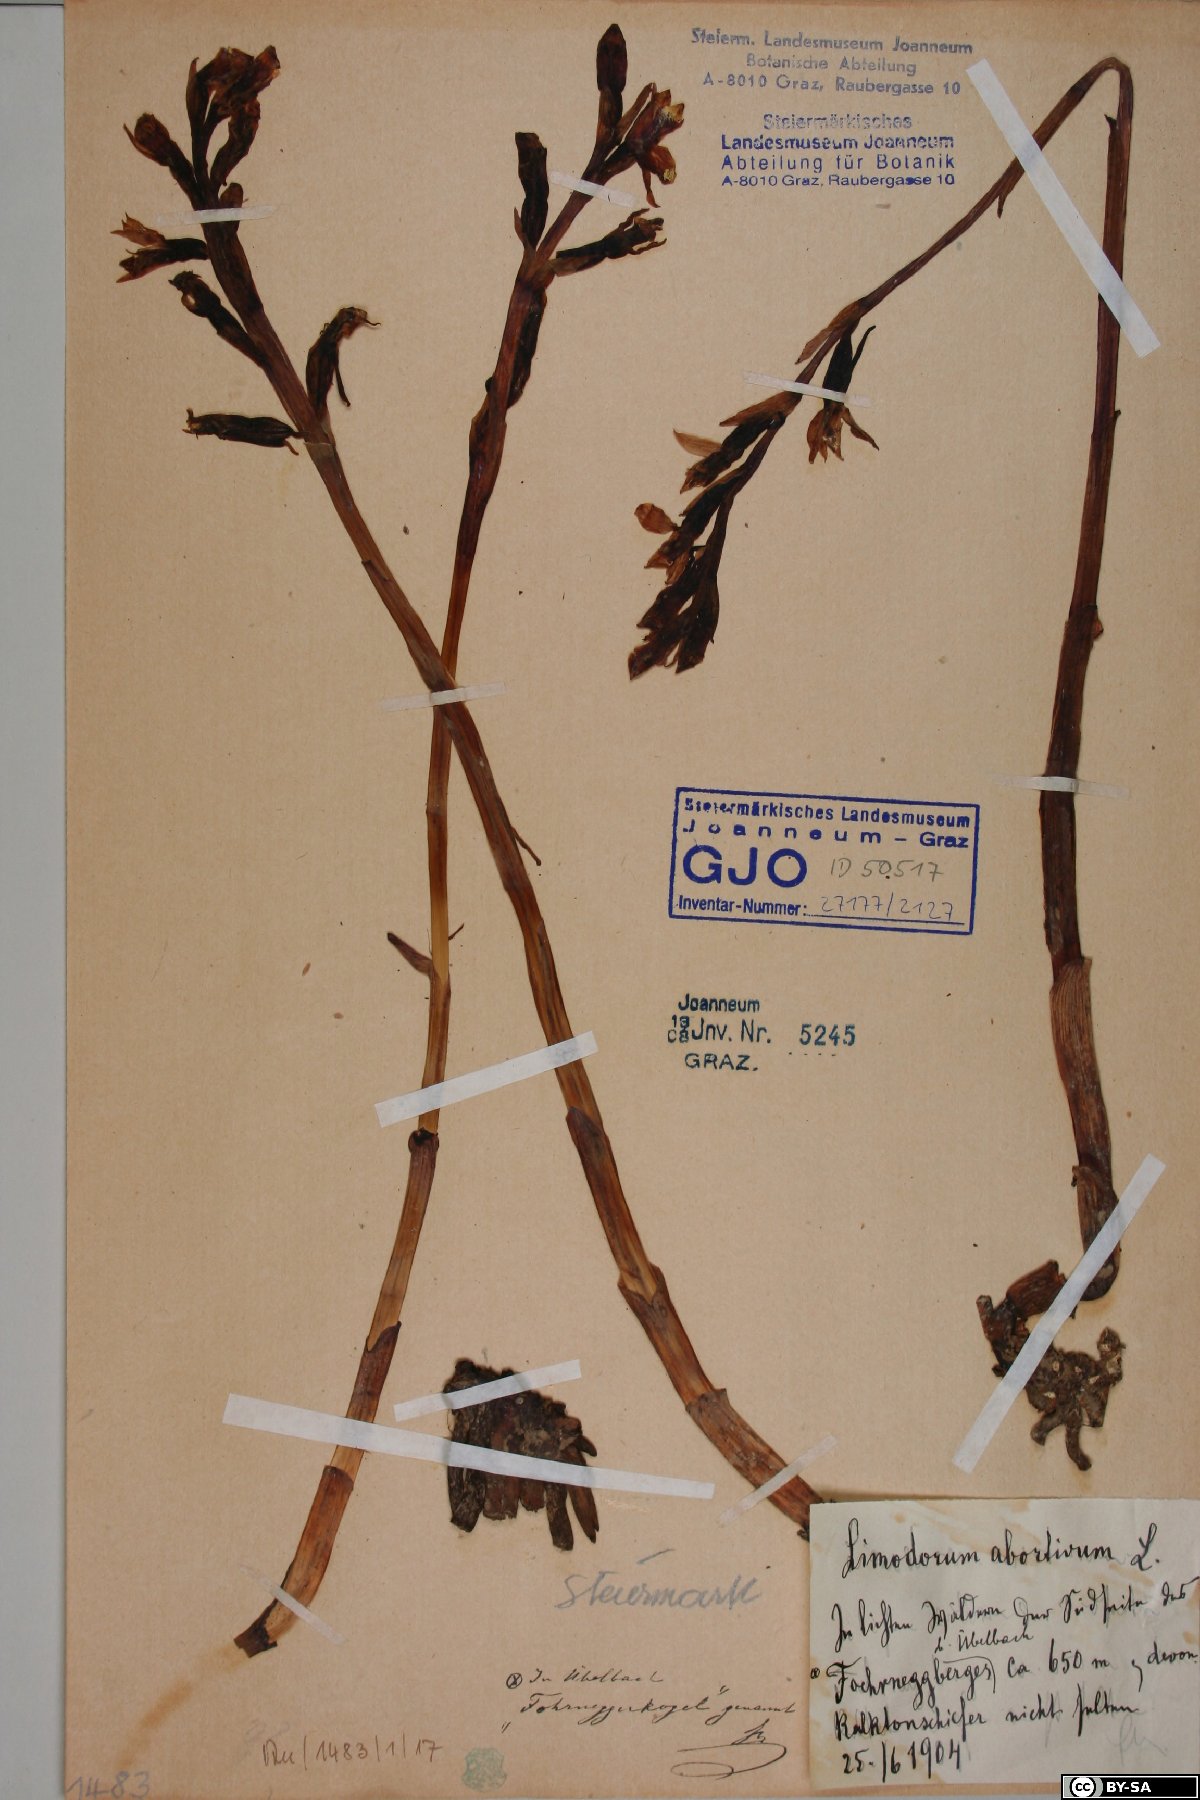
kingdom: Plantae
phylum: Tracheophyta
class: Liliopsida
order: Asparagales
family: Orchidaceae
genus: Limodorum
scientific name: Limodorum abortivum
